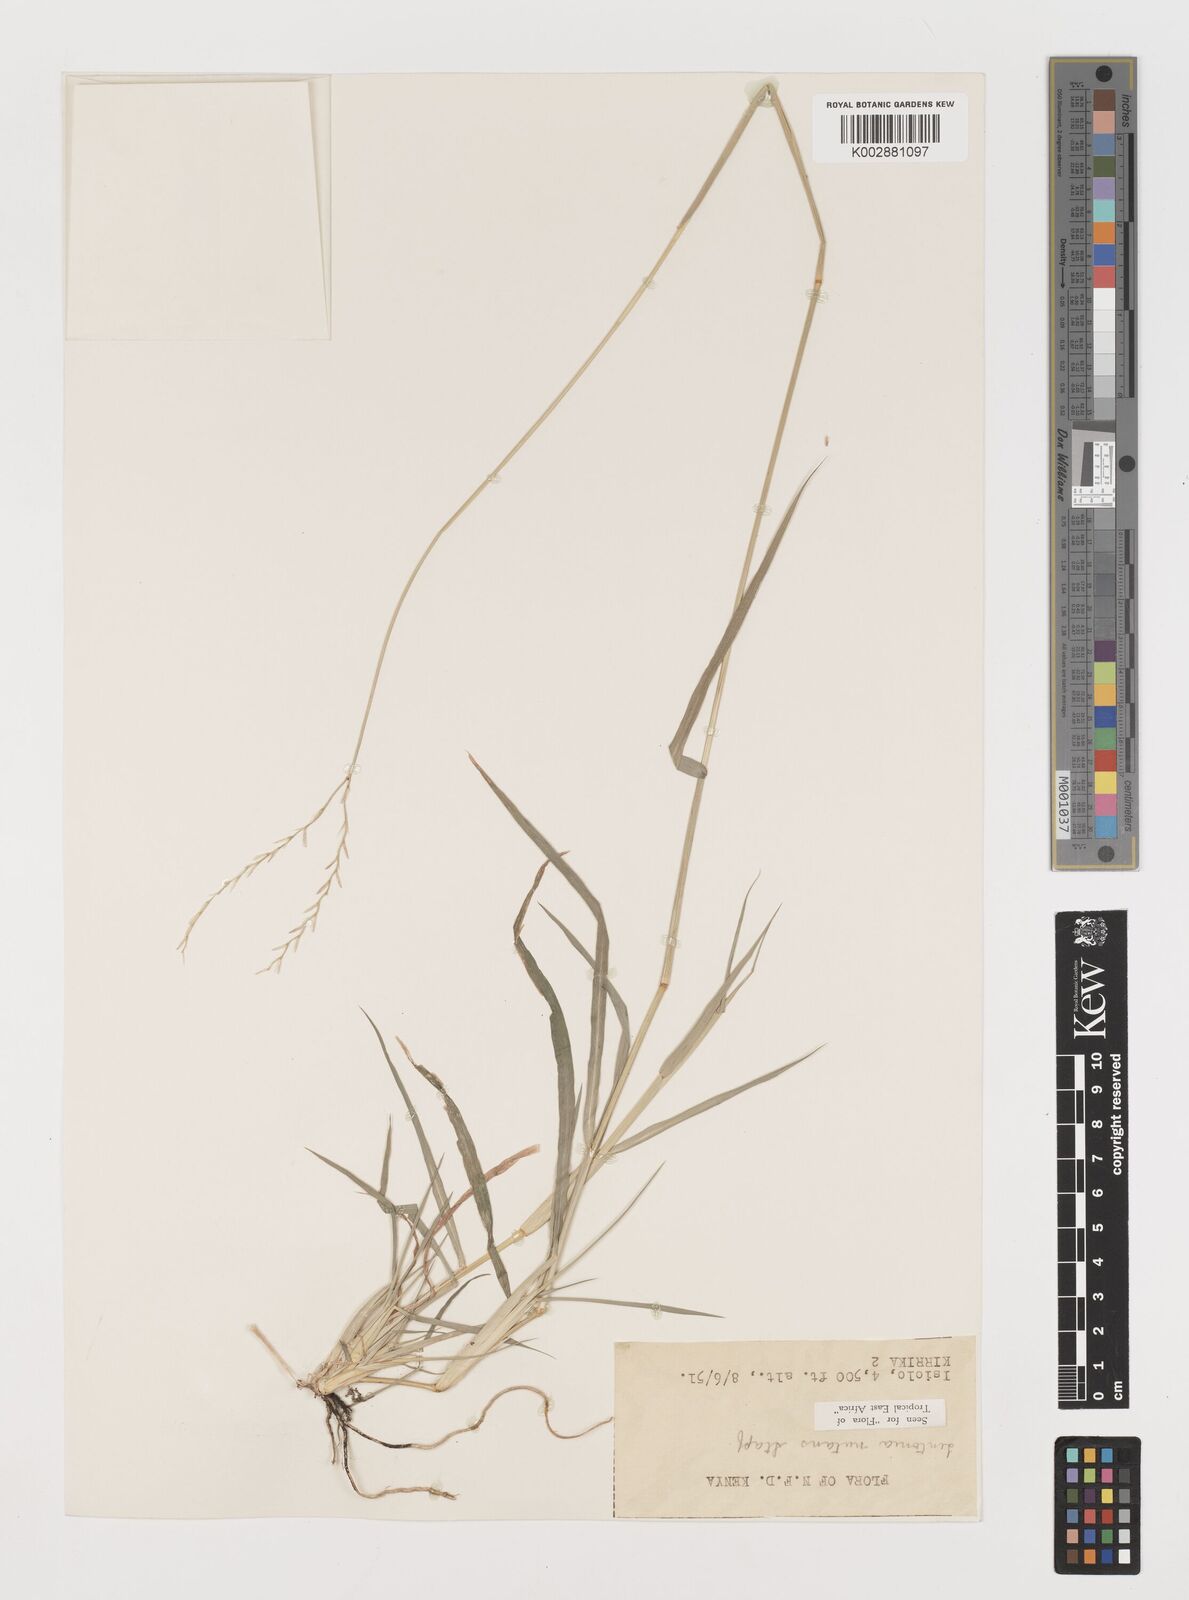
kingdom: Plantae
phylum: Tracheophyta
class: Liliopsida
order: Poales
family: Poaceae
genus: Chloris
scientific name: Chloris nutans
